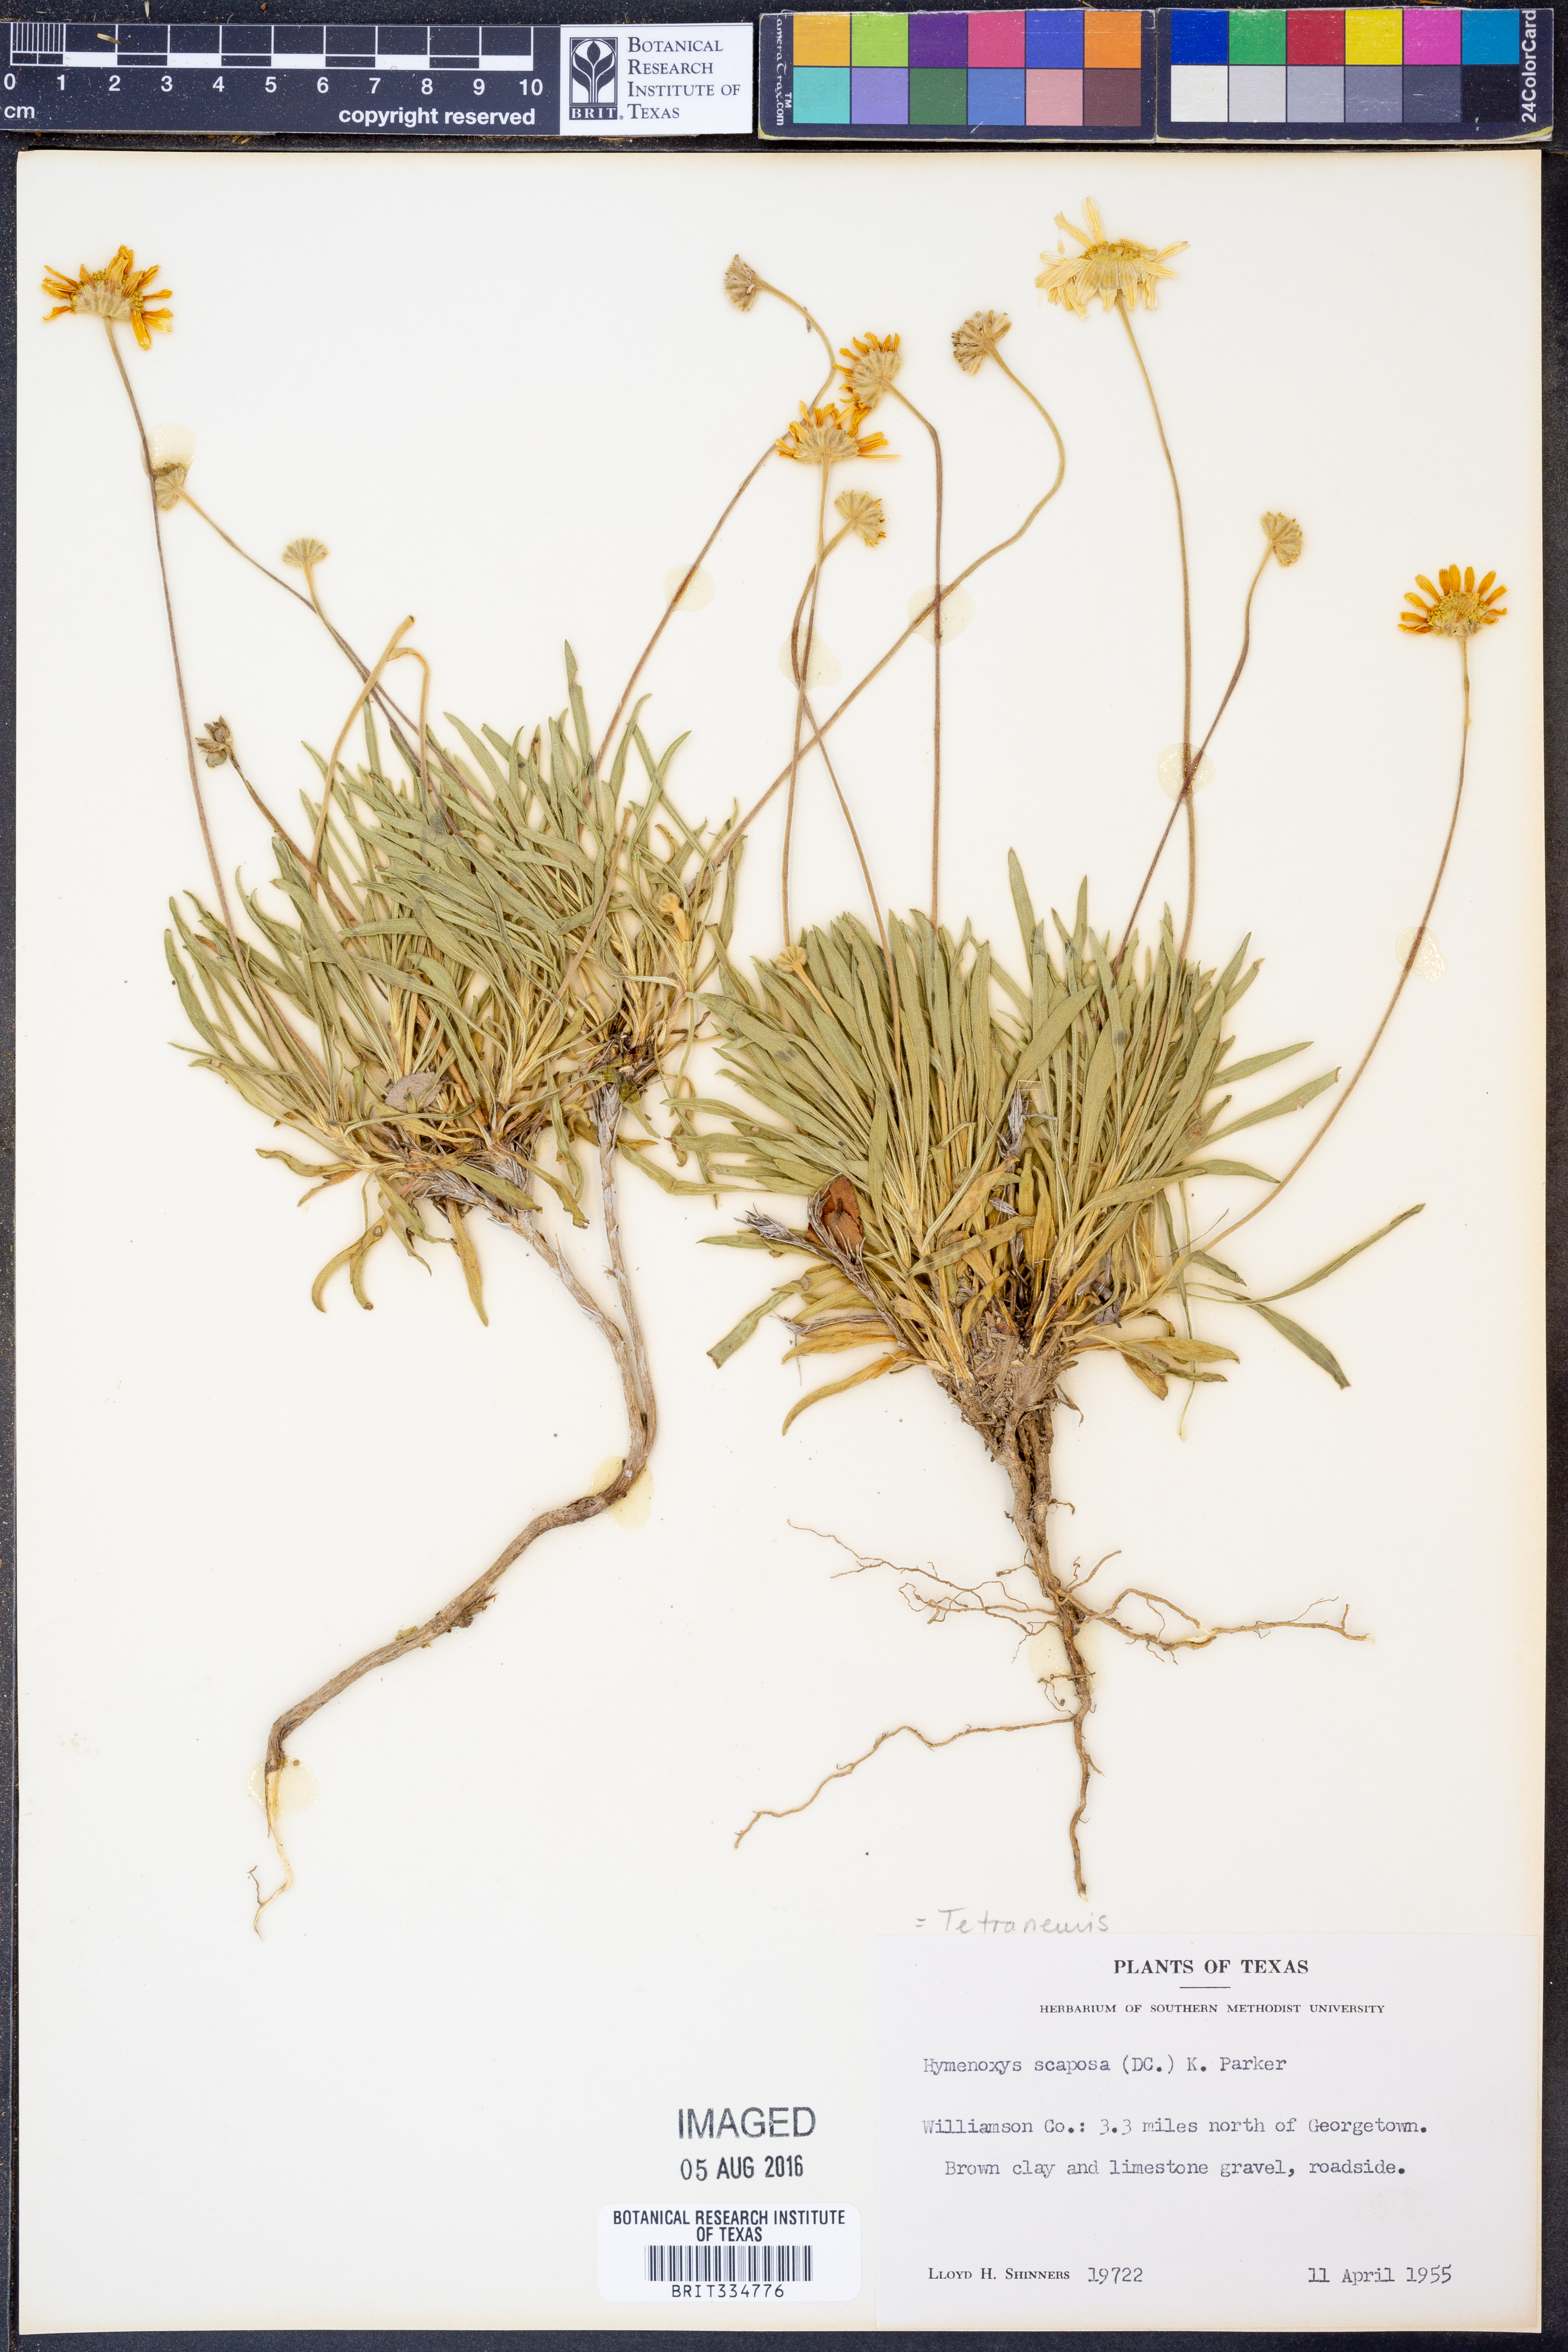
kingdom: Plantae
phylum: Tracheophyta
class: Magnoliopsida
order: Asterales
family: Asteraceae
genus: Tetraneuris
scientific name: Tetraneuris scaposa
